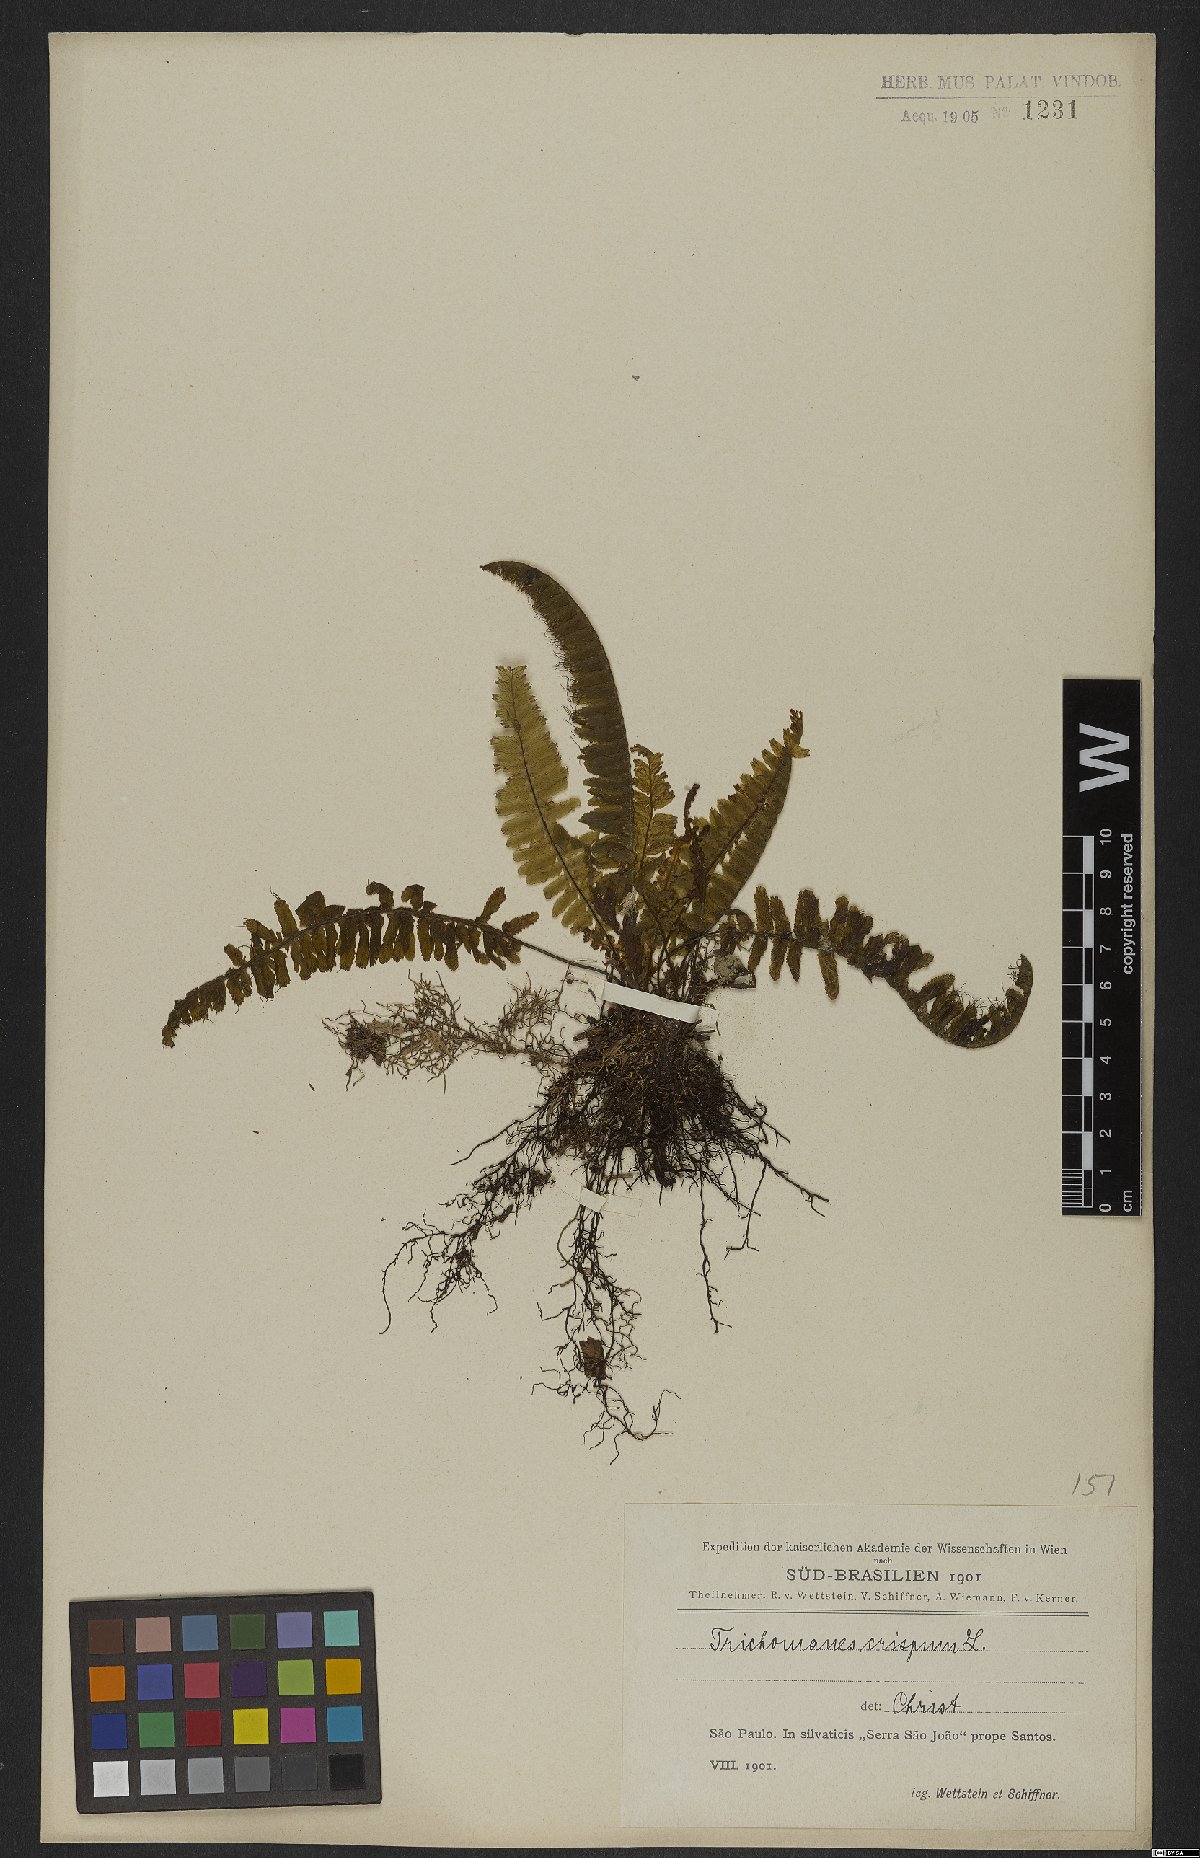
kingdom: Plantae
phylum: Tracheophyta
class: Polypodiopsida
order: Hymenophyllales
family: Hymenophyllaceae
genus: Trichomanes
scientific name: Trichomanes cristatum
